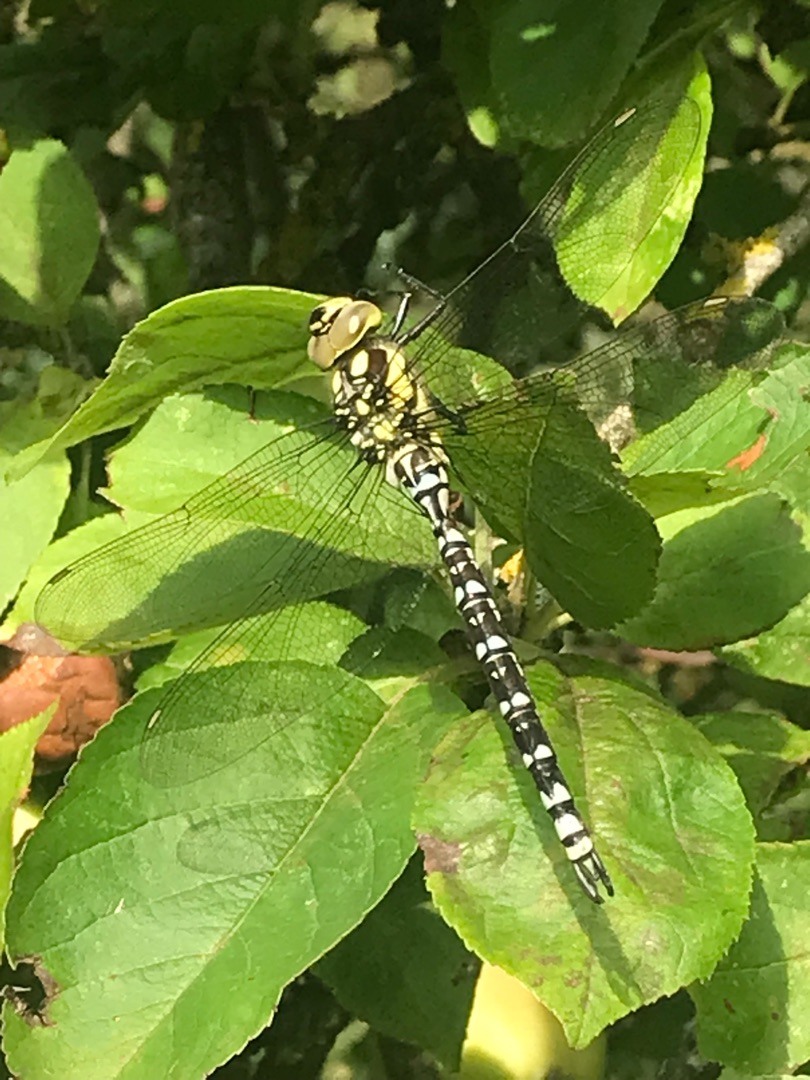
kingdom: Animalia
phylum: Arthropoda
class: Insecta
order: Odonata
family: Aeshnidae
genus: Aeshna
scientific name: Aeshna cyanea
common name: Blå mosaikguldsmed
